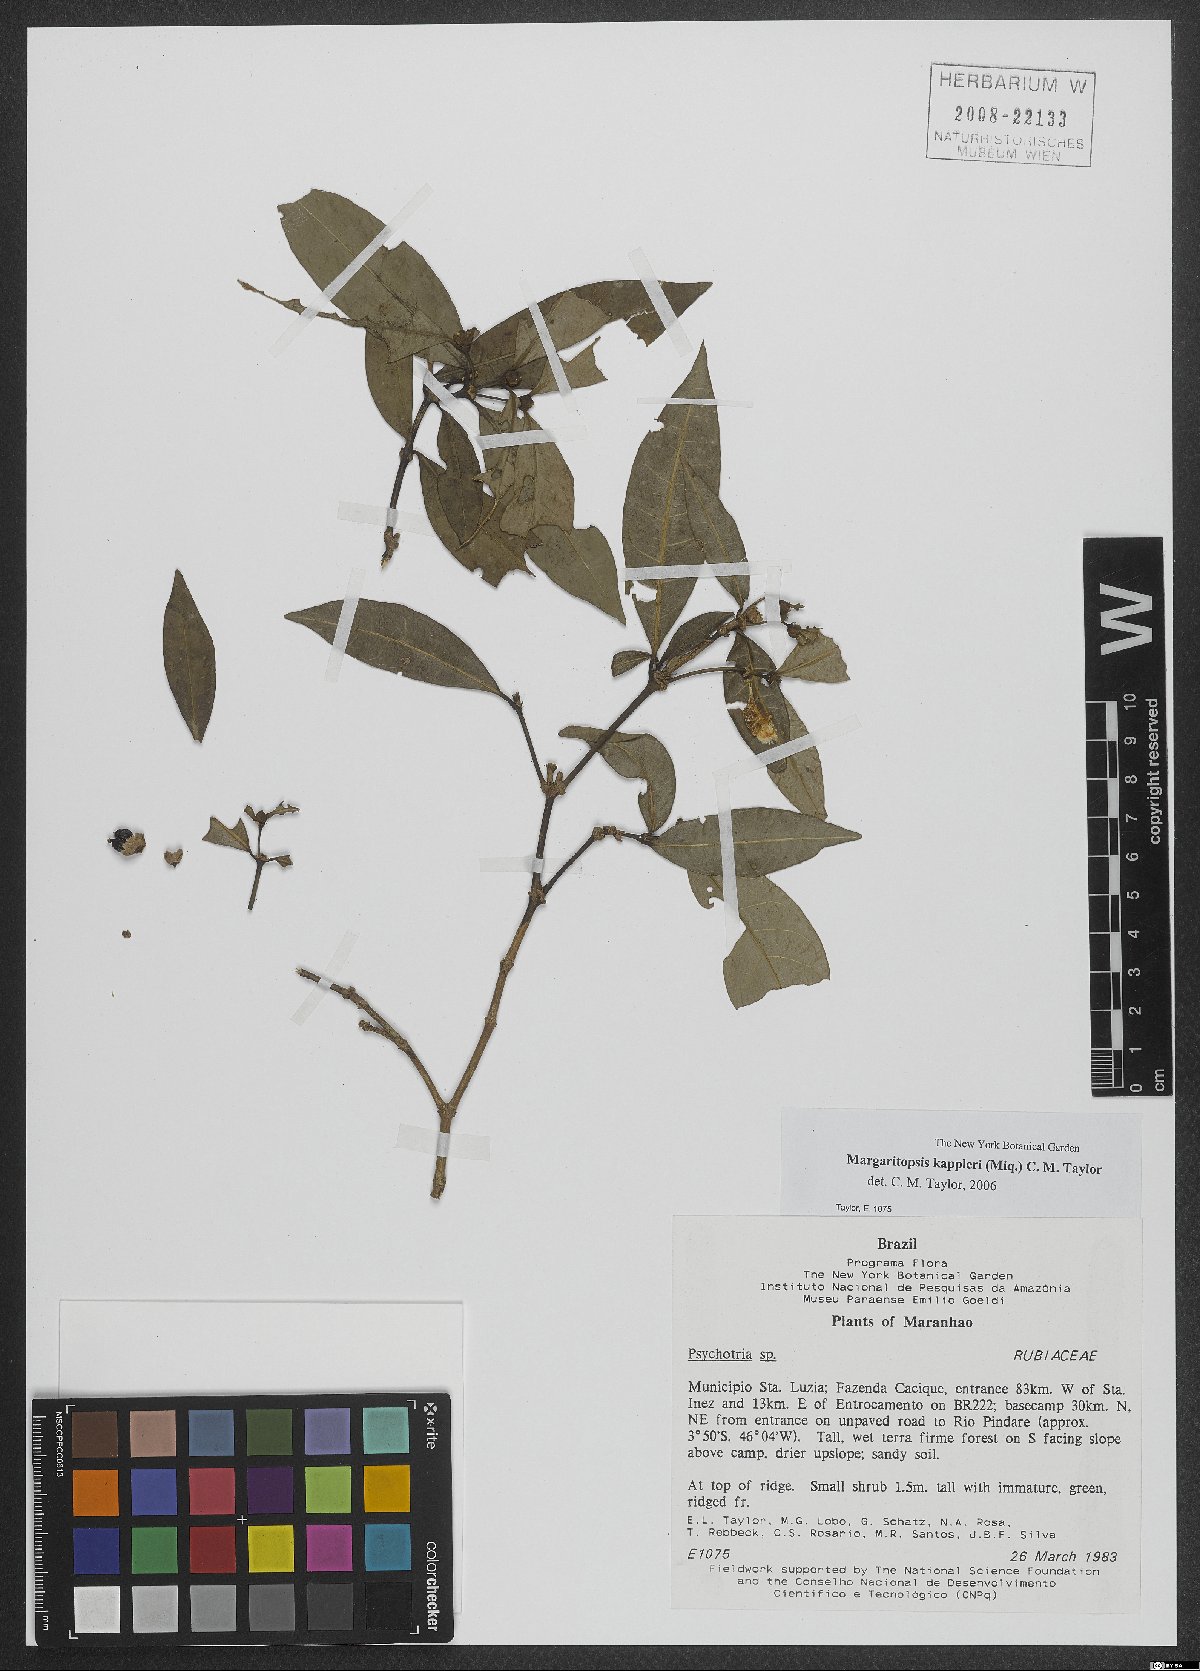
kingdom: Plantae
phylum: Tracheophyta
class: Magnoliopsida
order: Gentianales
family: Rubiaceae
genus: Eumachia
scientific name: Eumachia kappleri
